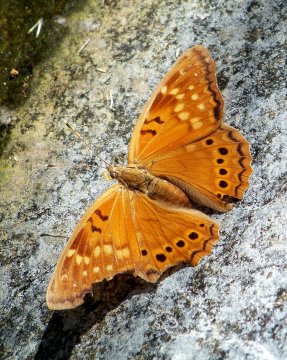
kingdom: Animalia
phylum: Arthropoda
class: Insecta
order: Lepidoptera
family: Nymphalidae
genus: Asterocampa
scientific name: Asterocampa clyton
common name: Tawny Emperor
